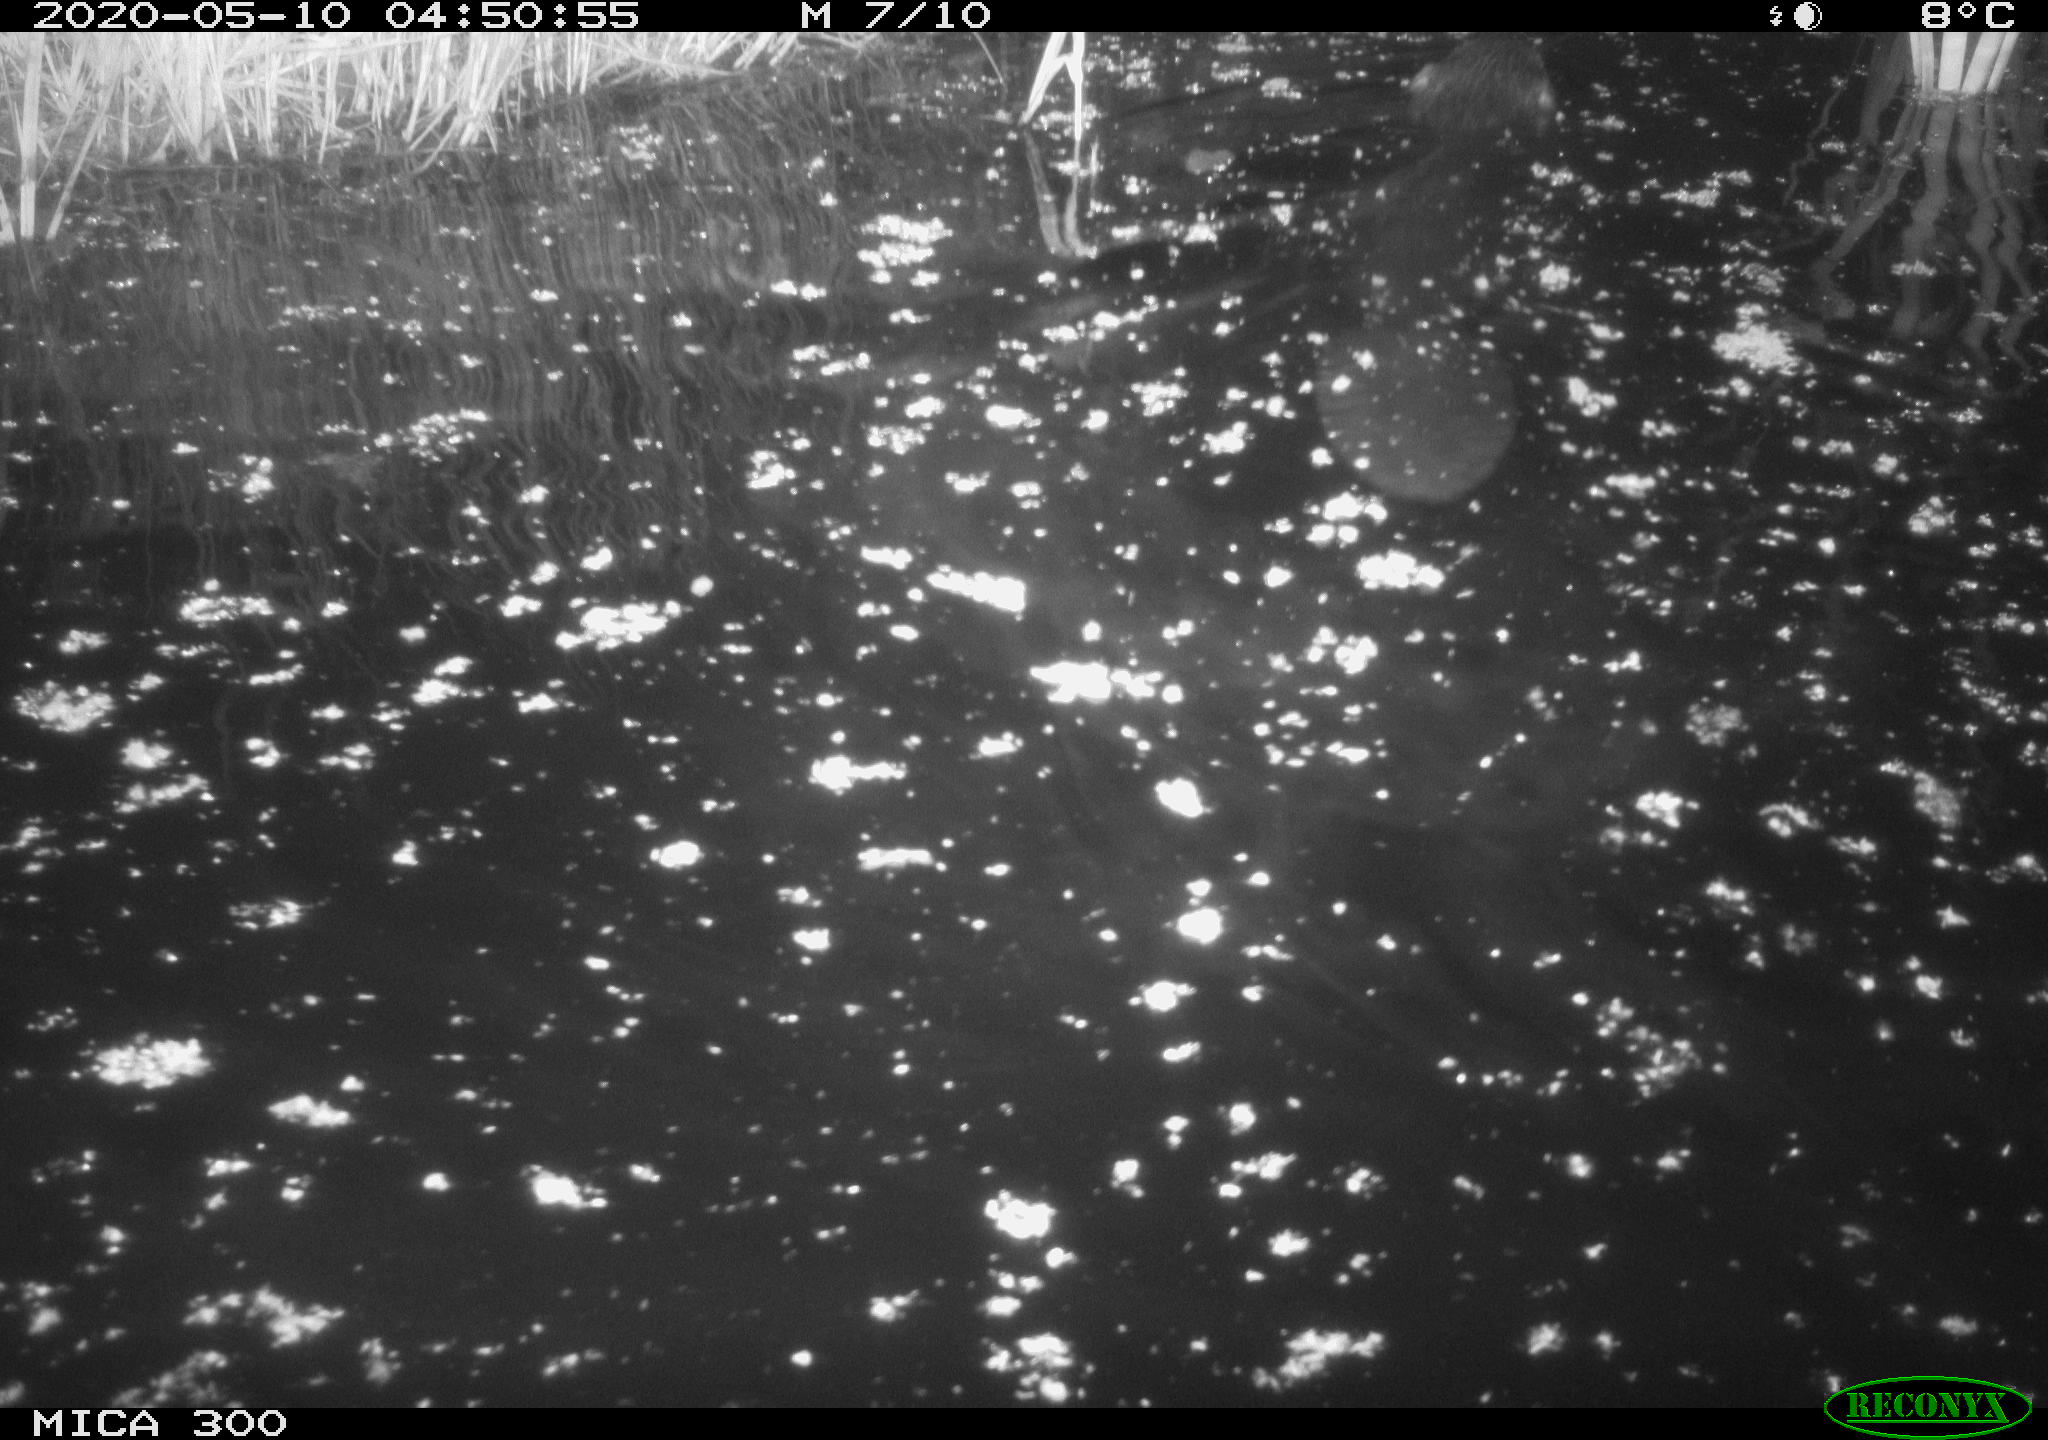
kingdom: Animalia
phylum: Chordata
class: Mammalia
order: Rodentia
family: Castoridae
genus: Castor
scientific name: Castor fiber
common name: Eurasian beaver
